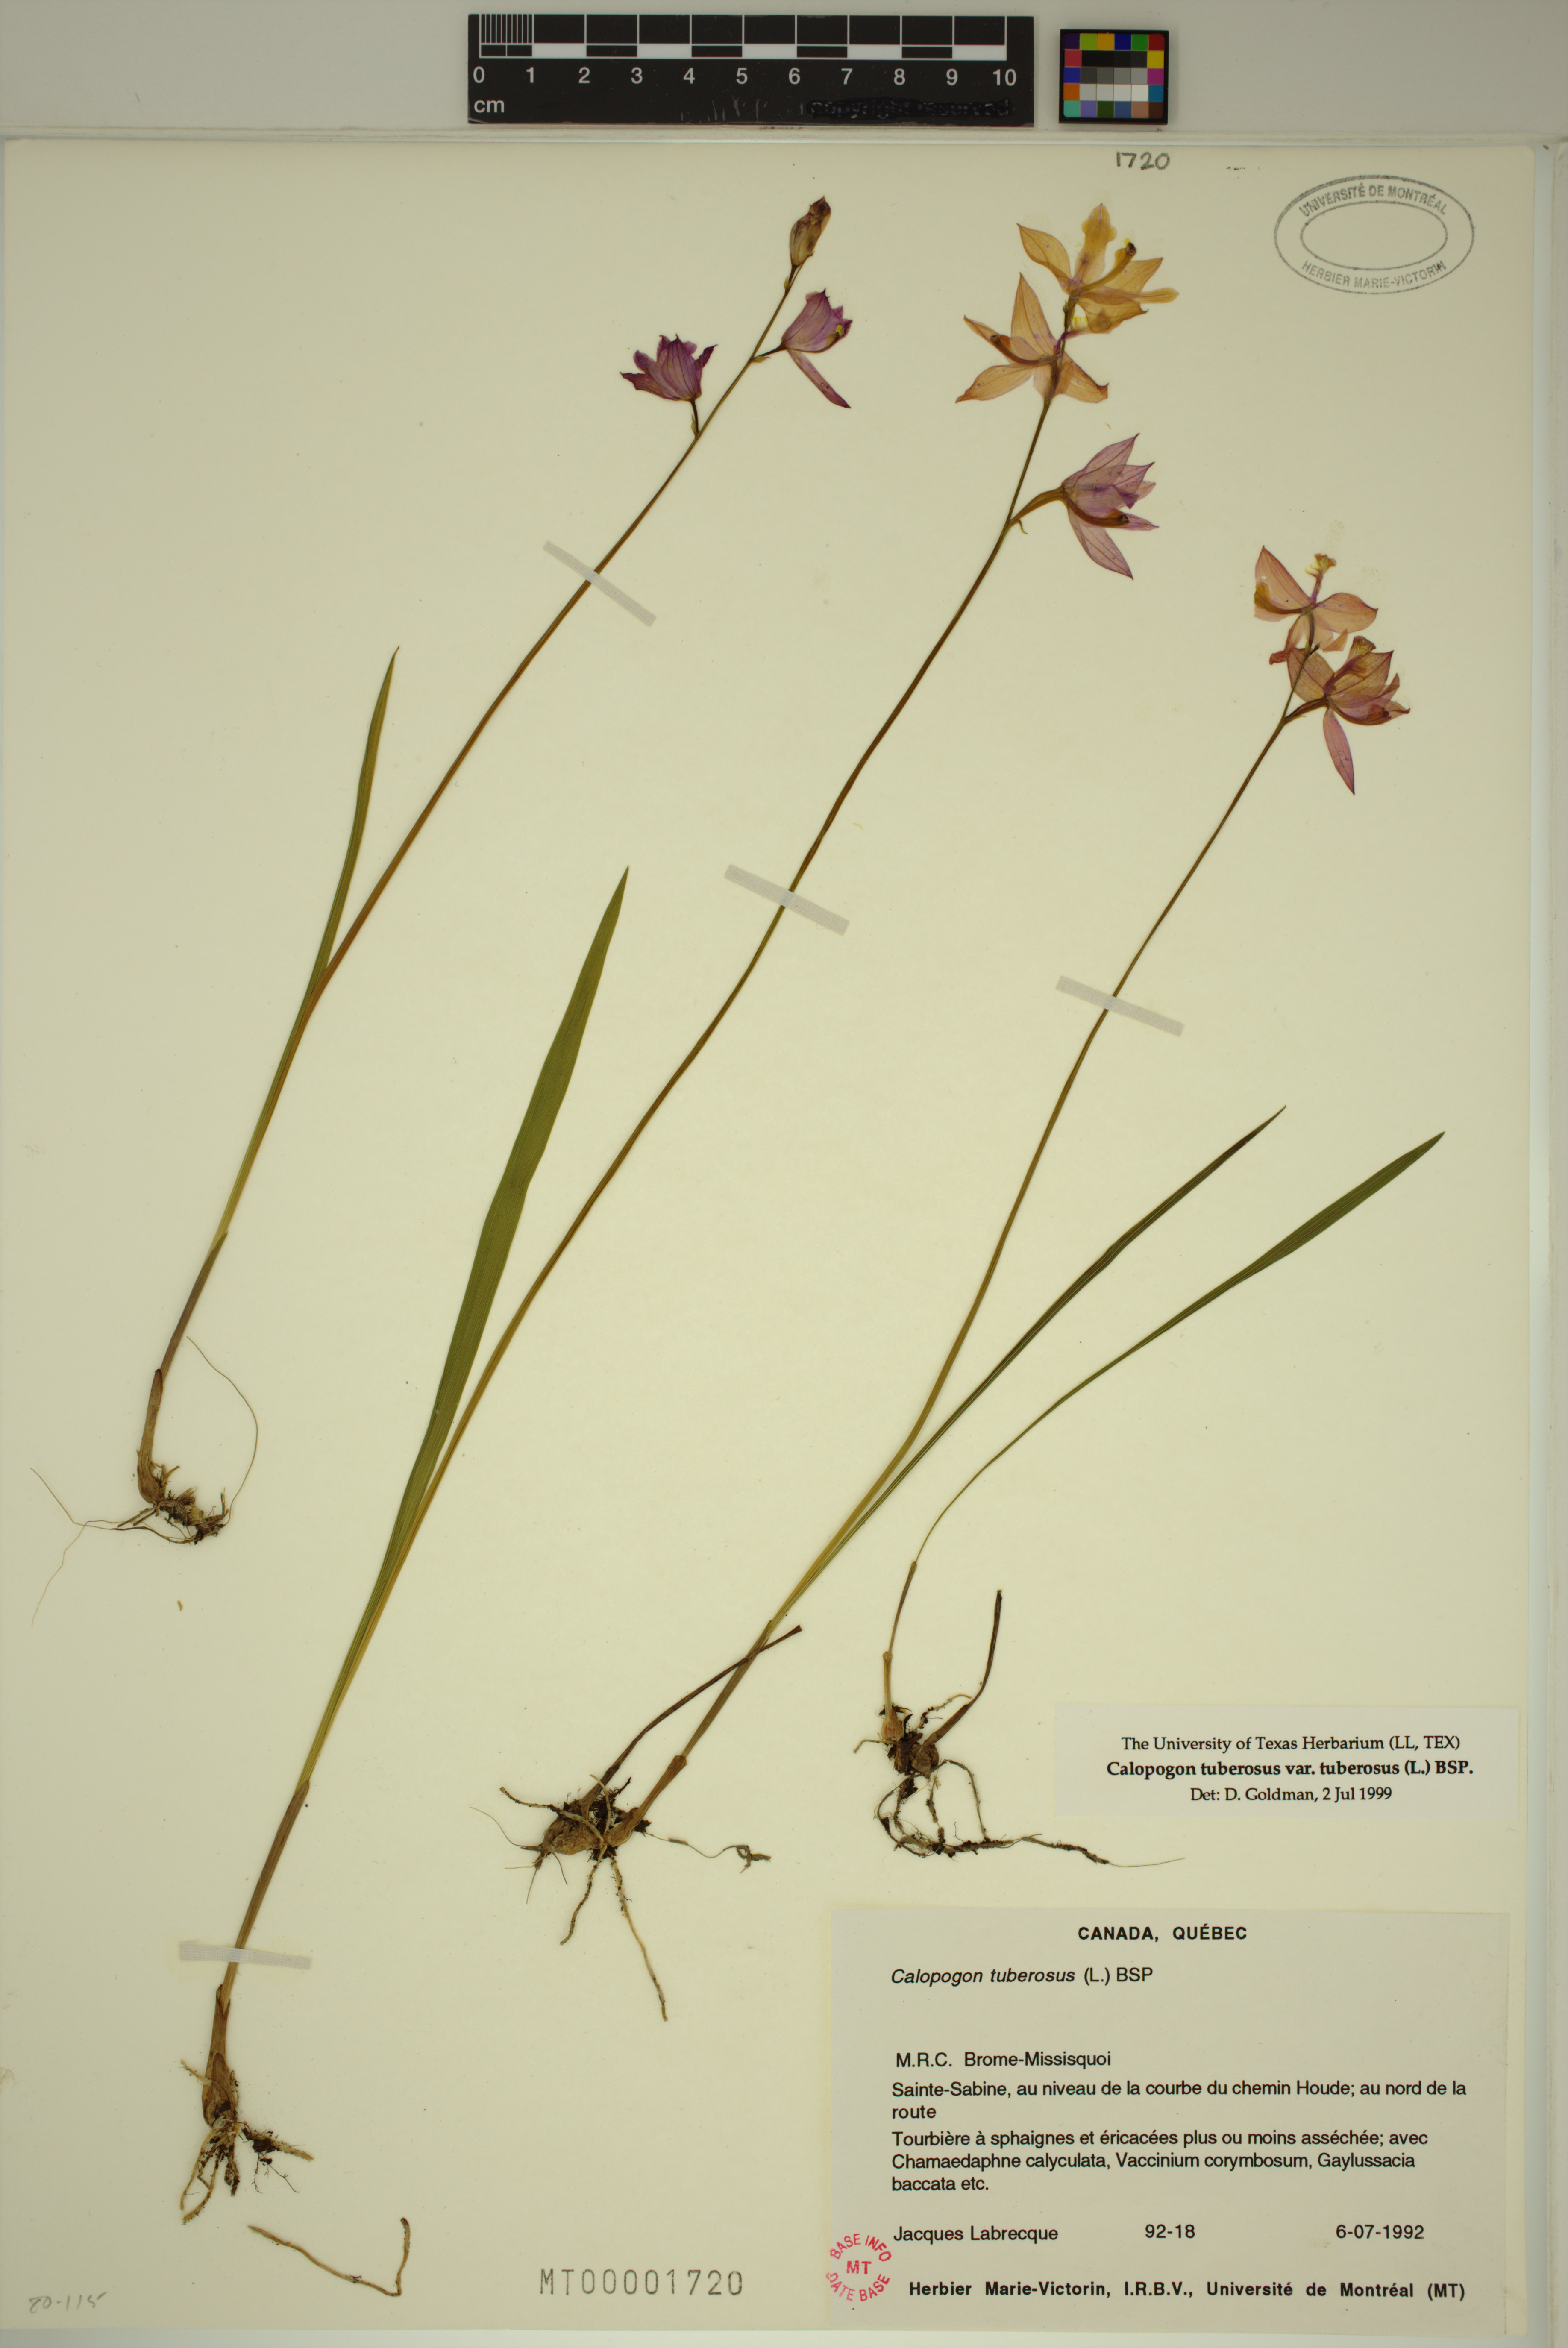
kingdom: Plantae
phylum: Tracheophyta
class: Liliopsida
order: Asparagales
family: Orchidaceae
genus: Calopogon
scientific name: Calopogon tuberosus
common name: Grass-pink
